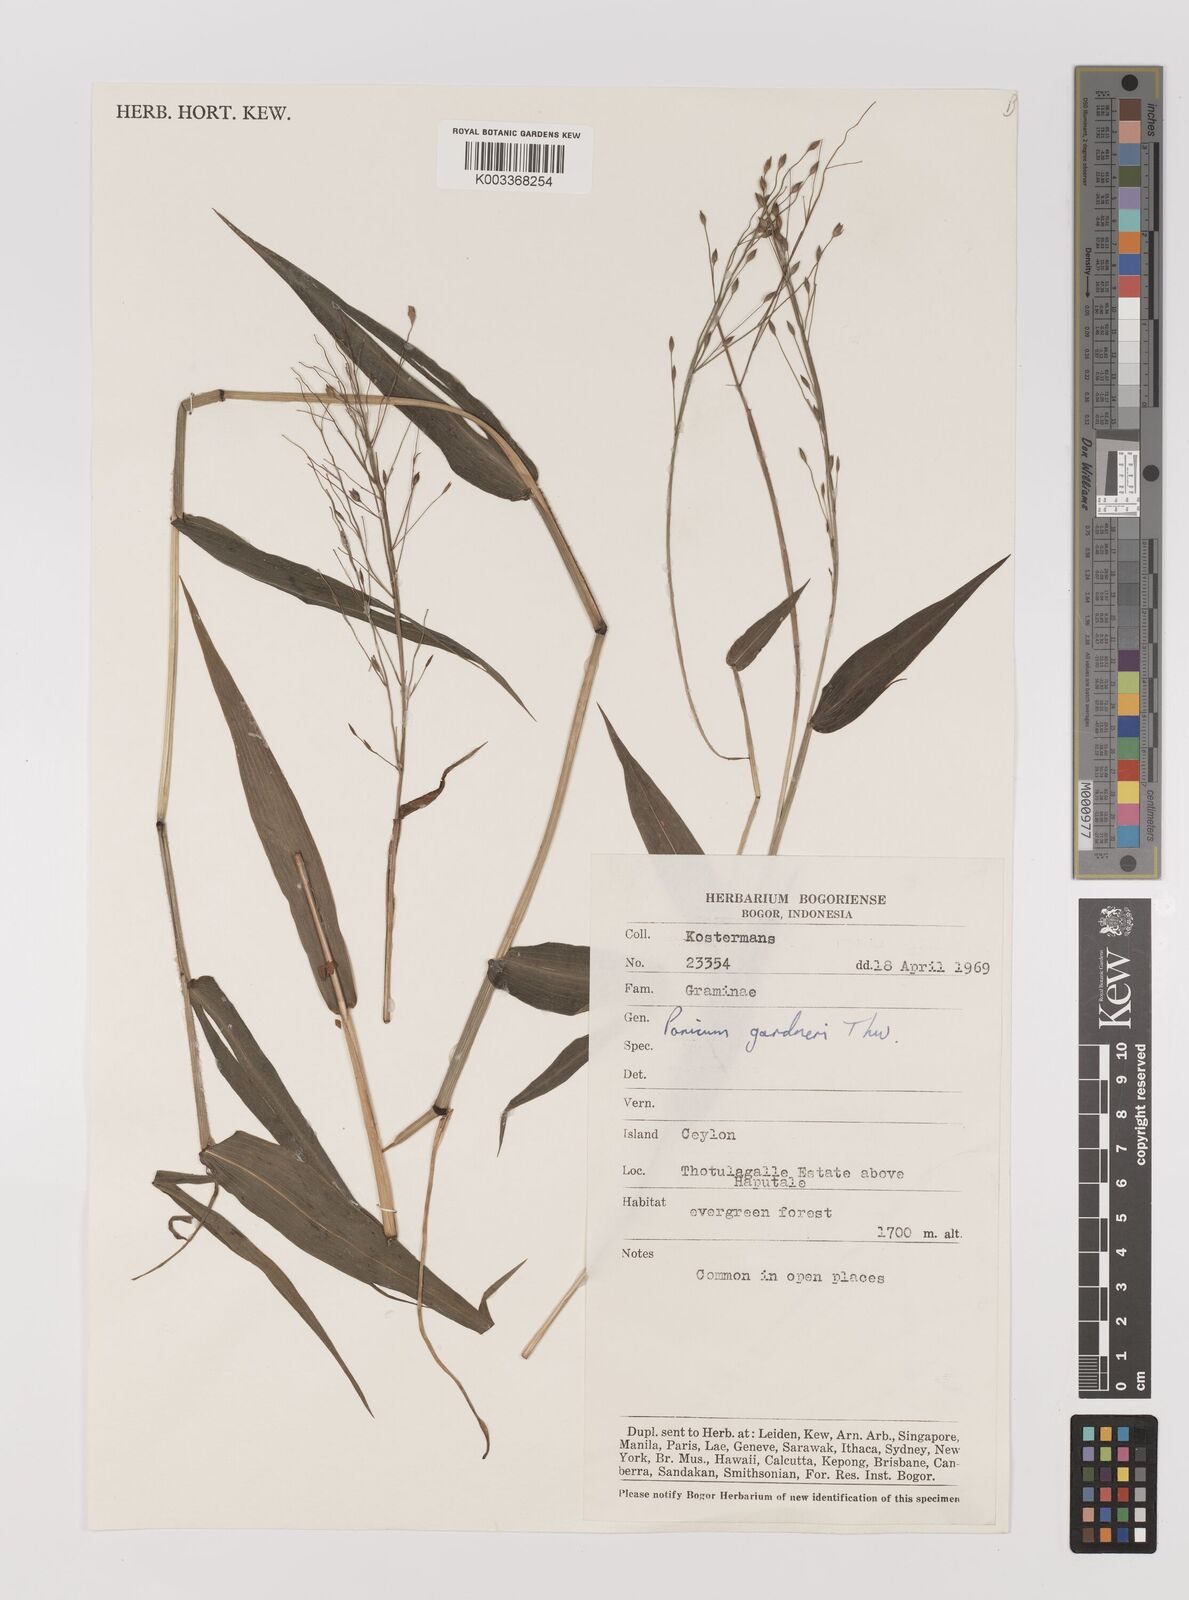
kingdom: Plantae
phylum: Tracheophyta
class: Liliopsida
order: Poales
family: Poaceae
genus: Panicum
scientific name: Panicum gardneri
